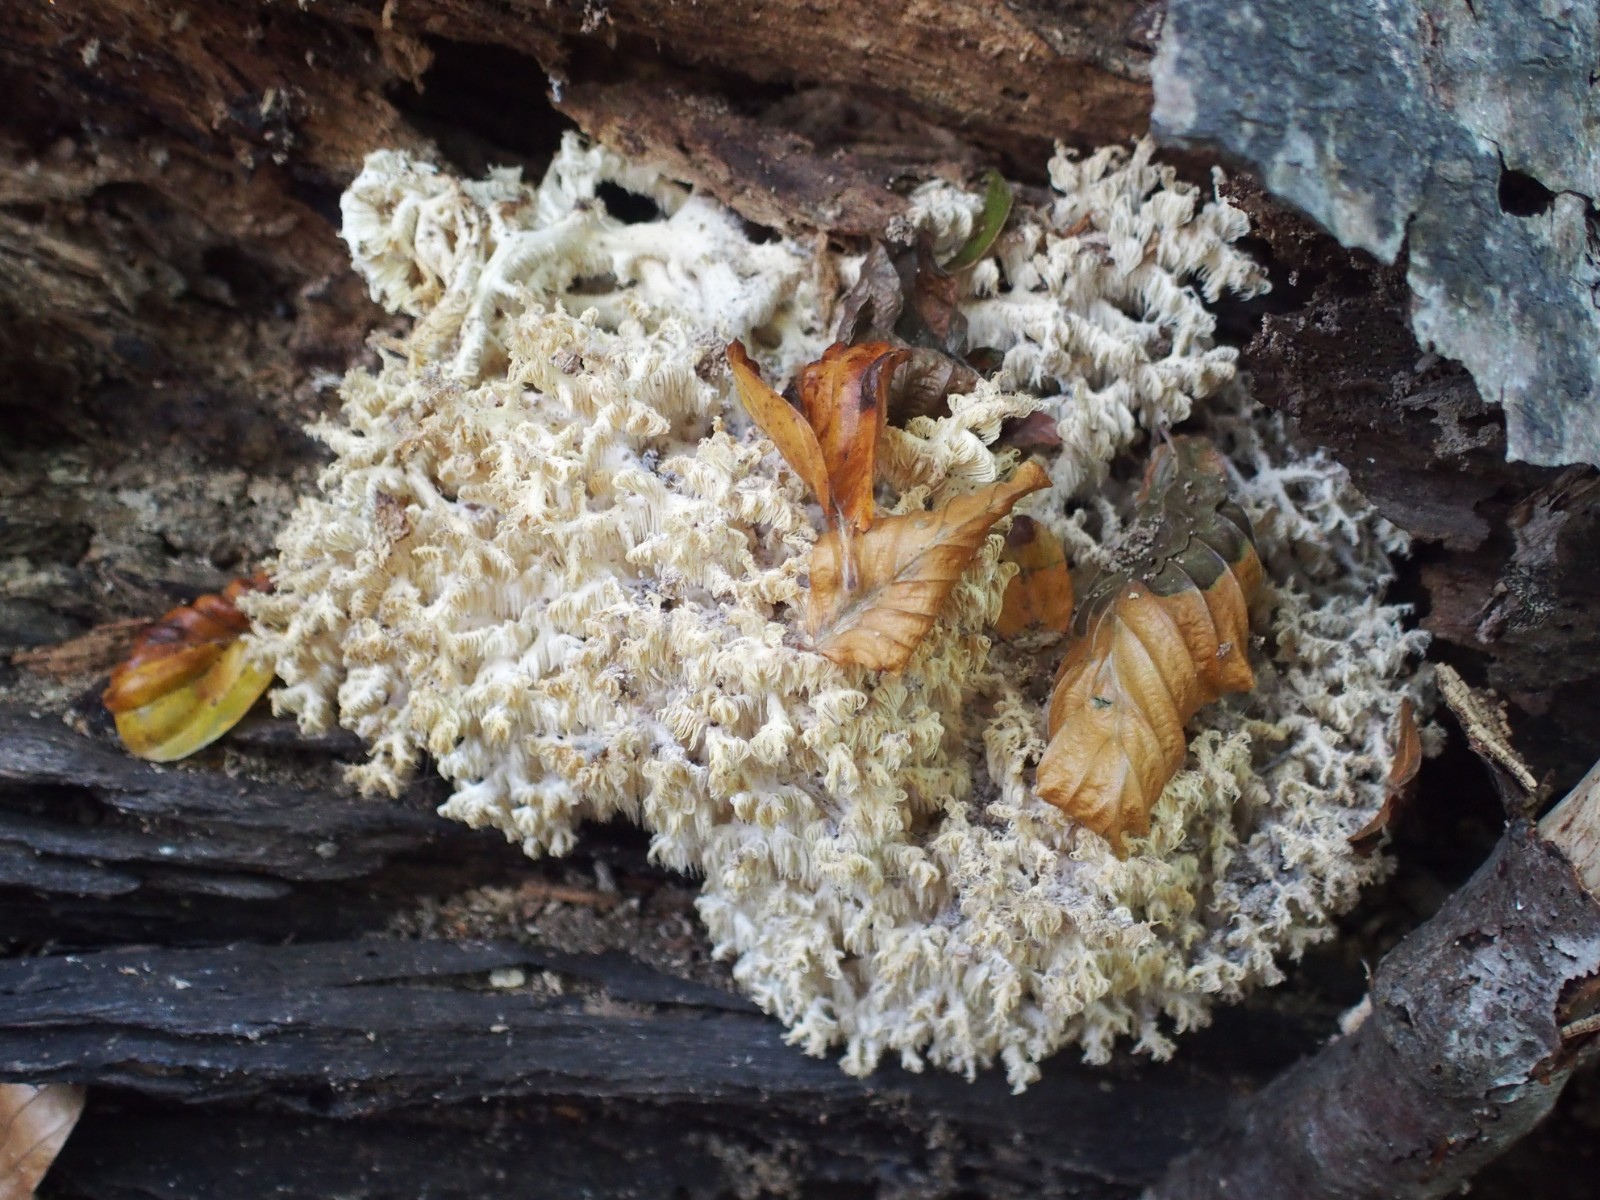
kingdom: Fungi
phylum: Basidiomycota
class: Agaricomycetes
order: Russulales
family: Hericiaceae
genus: Hericium
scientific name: Hericium coralloides
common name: koralpigsvamp
